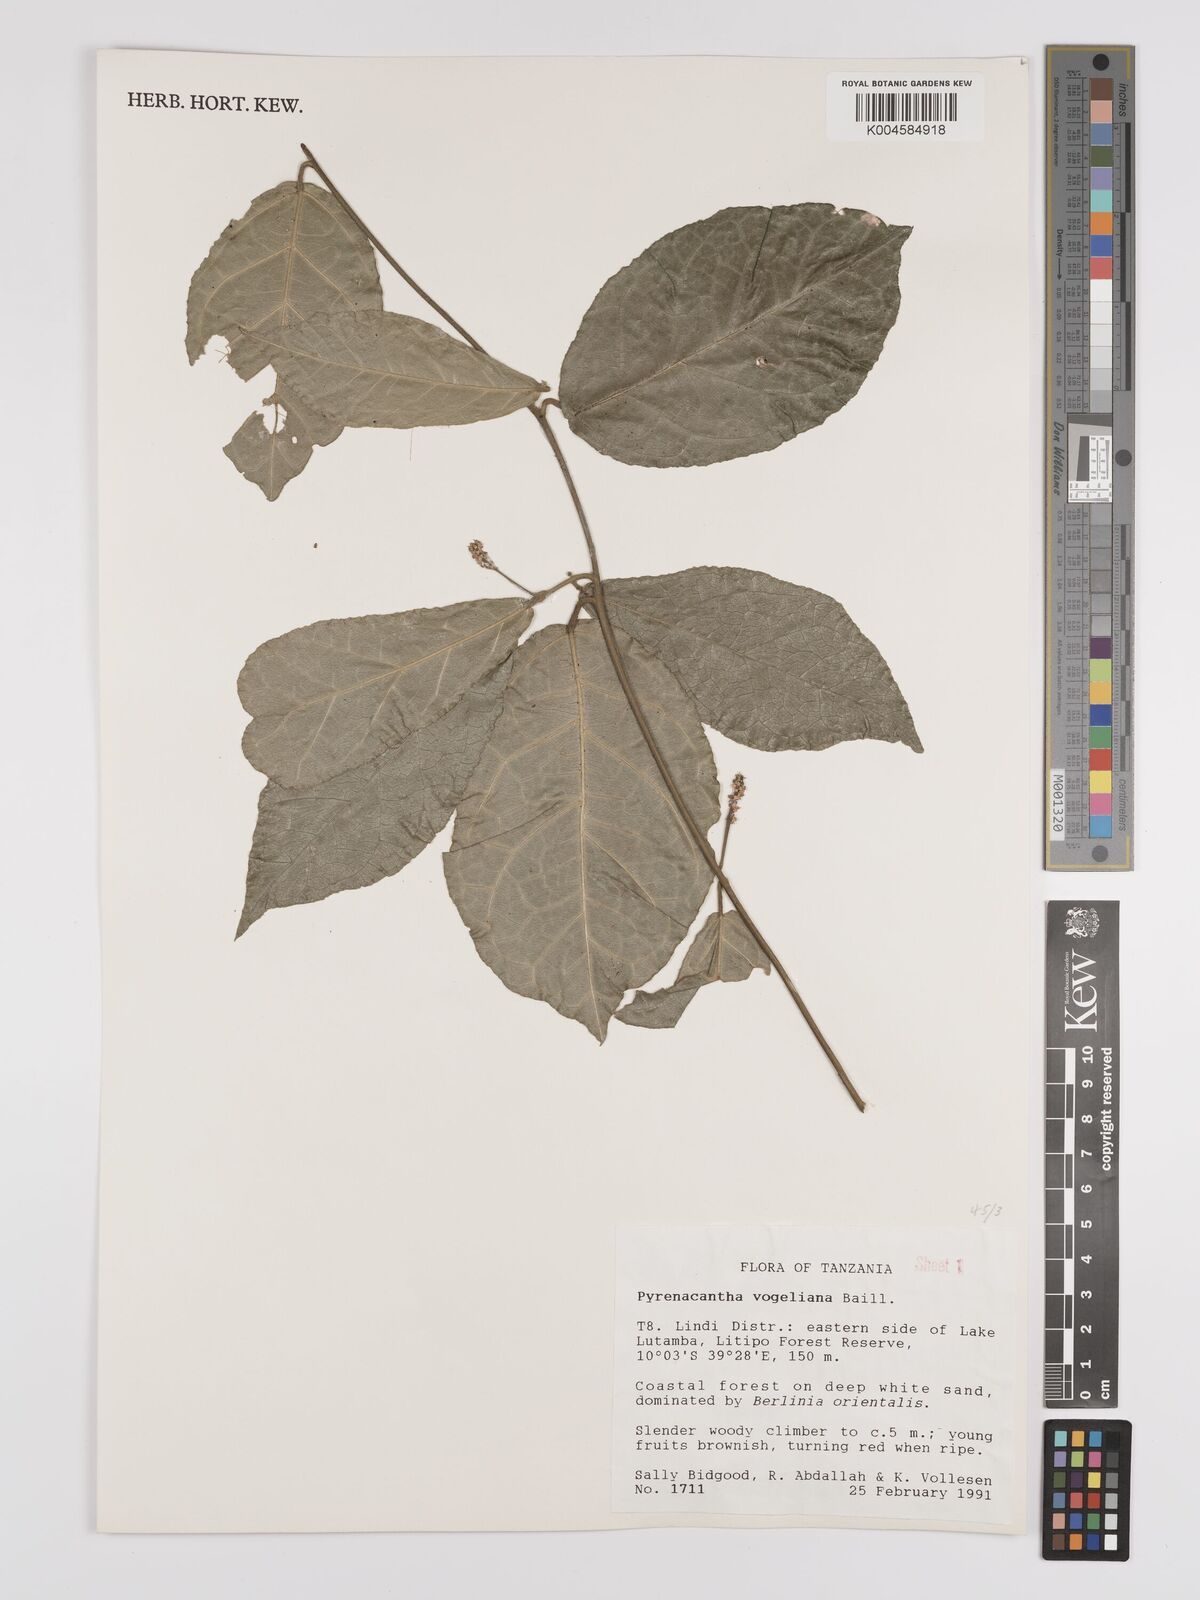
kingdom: Plantae
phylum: Tracheophyta
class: Magnoliopsida
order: Icacinales
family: Icacinaceae
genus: Pyrenacantha
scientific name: Pyrenacantha vogeliana
